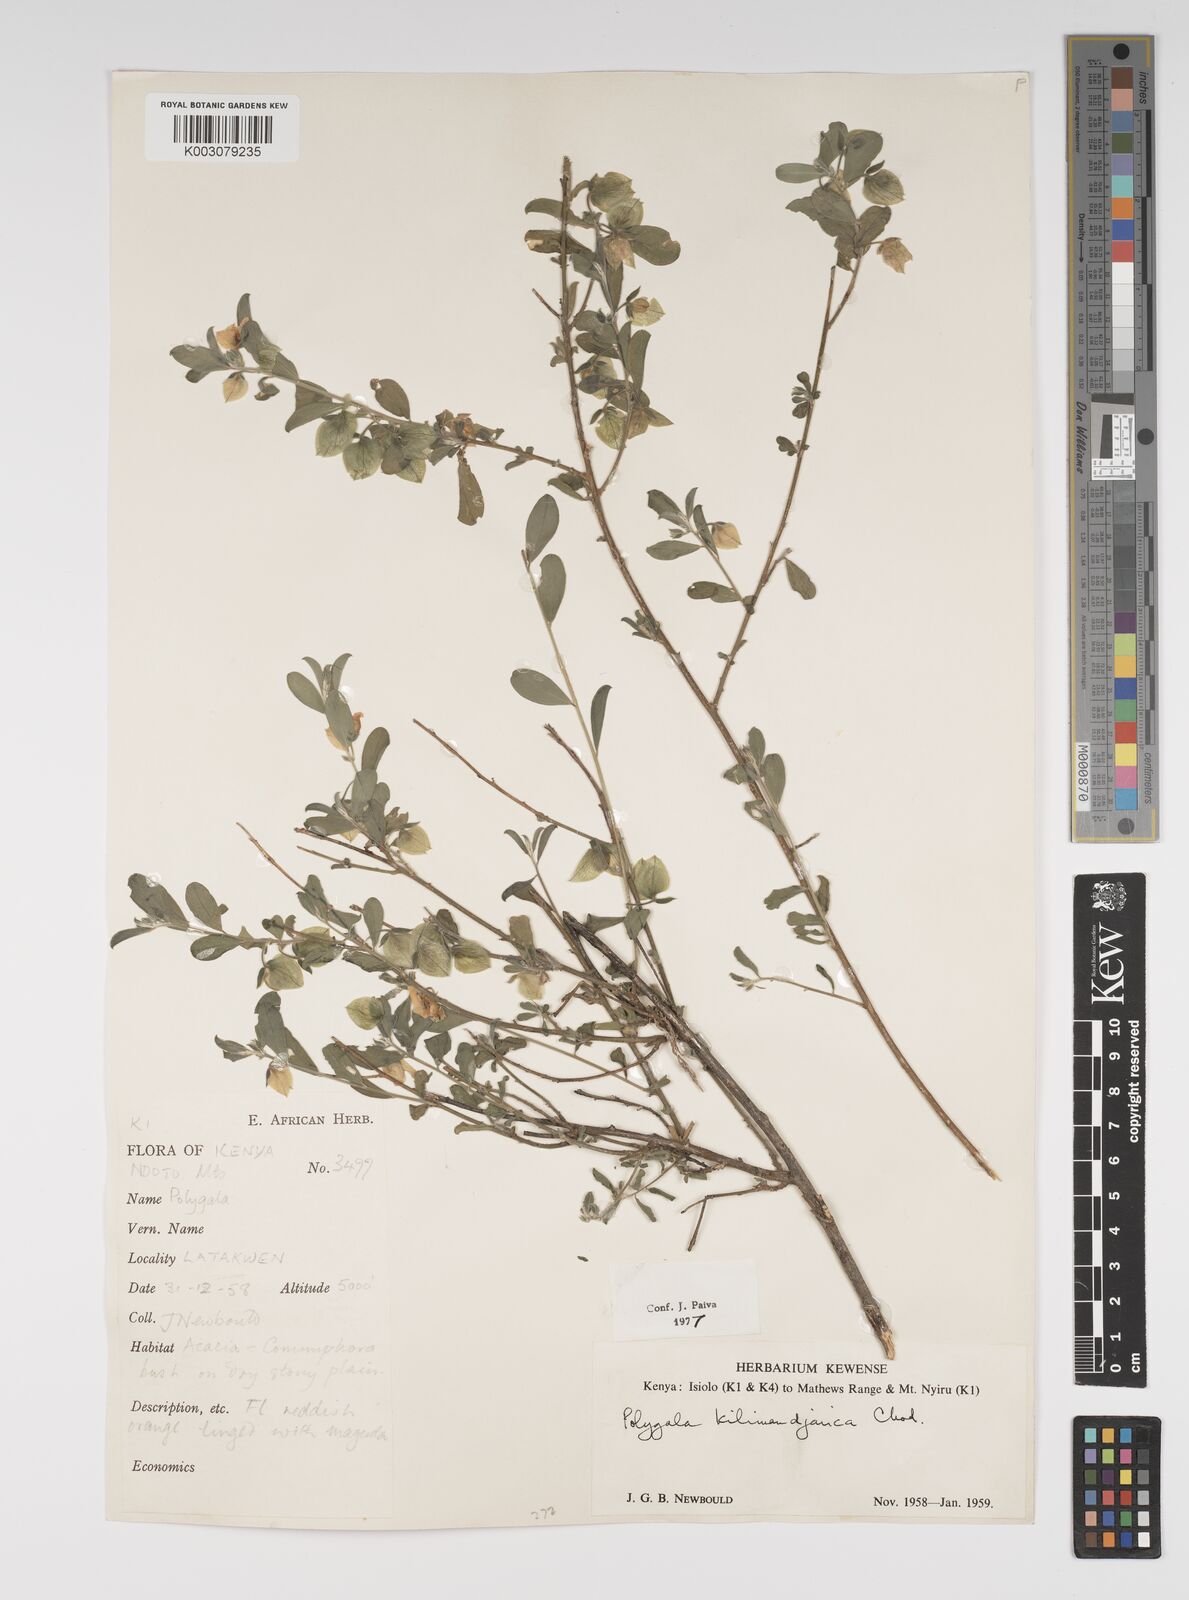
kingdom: Plantae
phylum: Tracheophyta
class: Magnoliopsida
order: Fabales
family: Polygalaceae
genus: Polygala
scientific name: Polygala kilimandjarica
